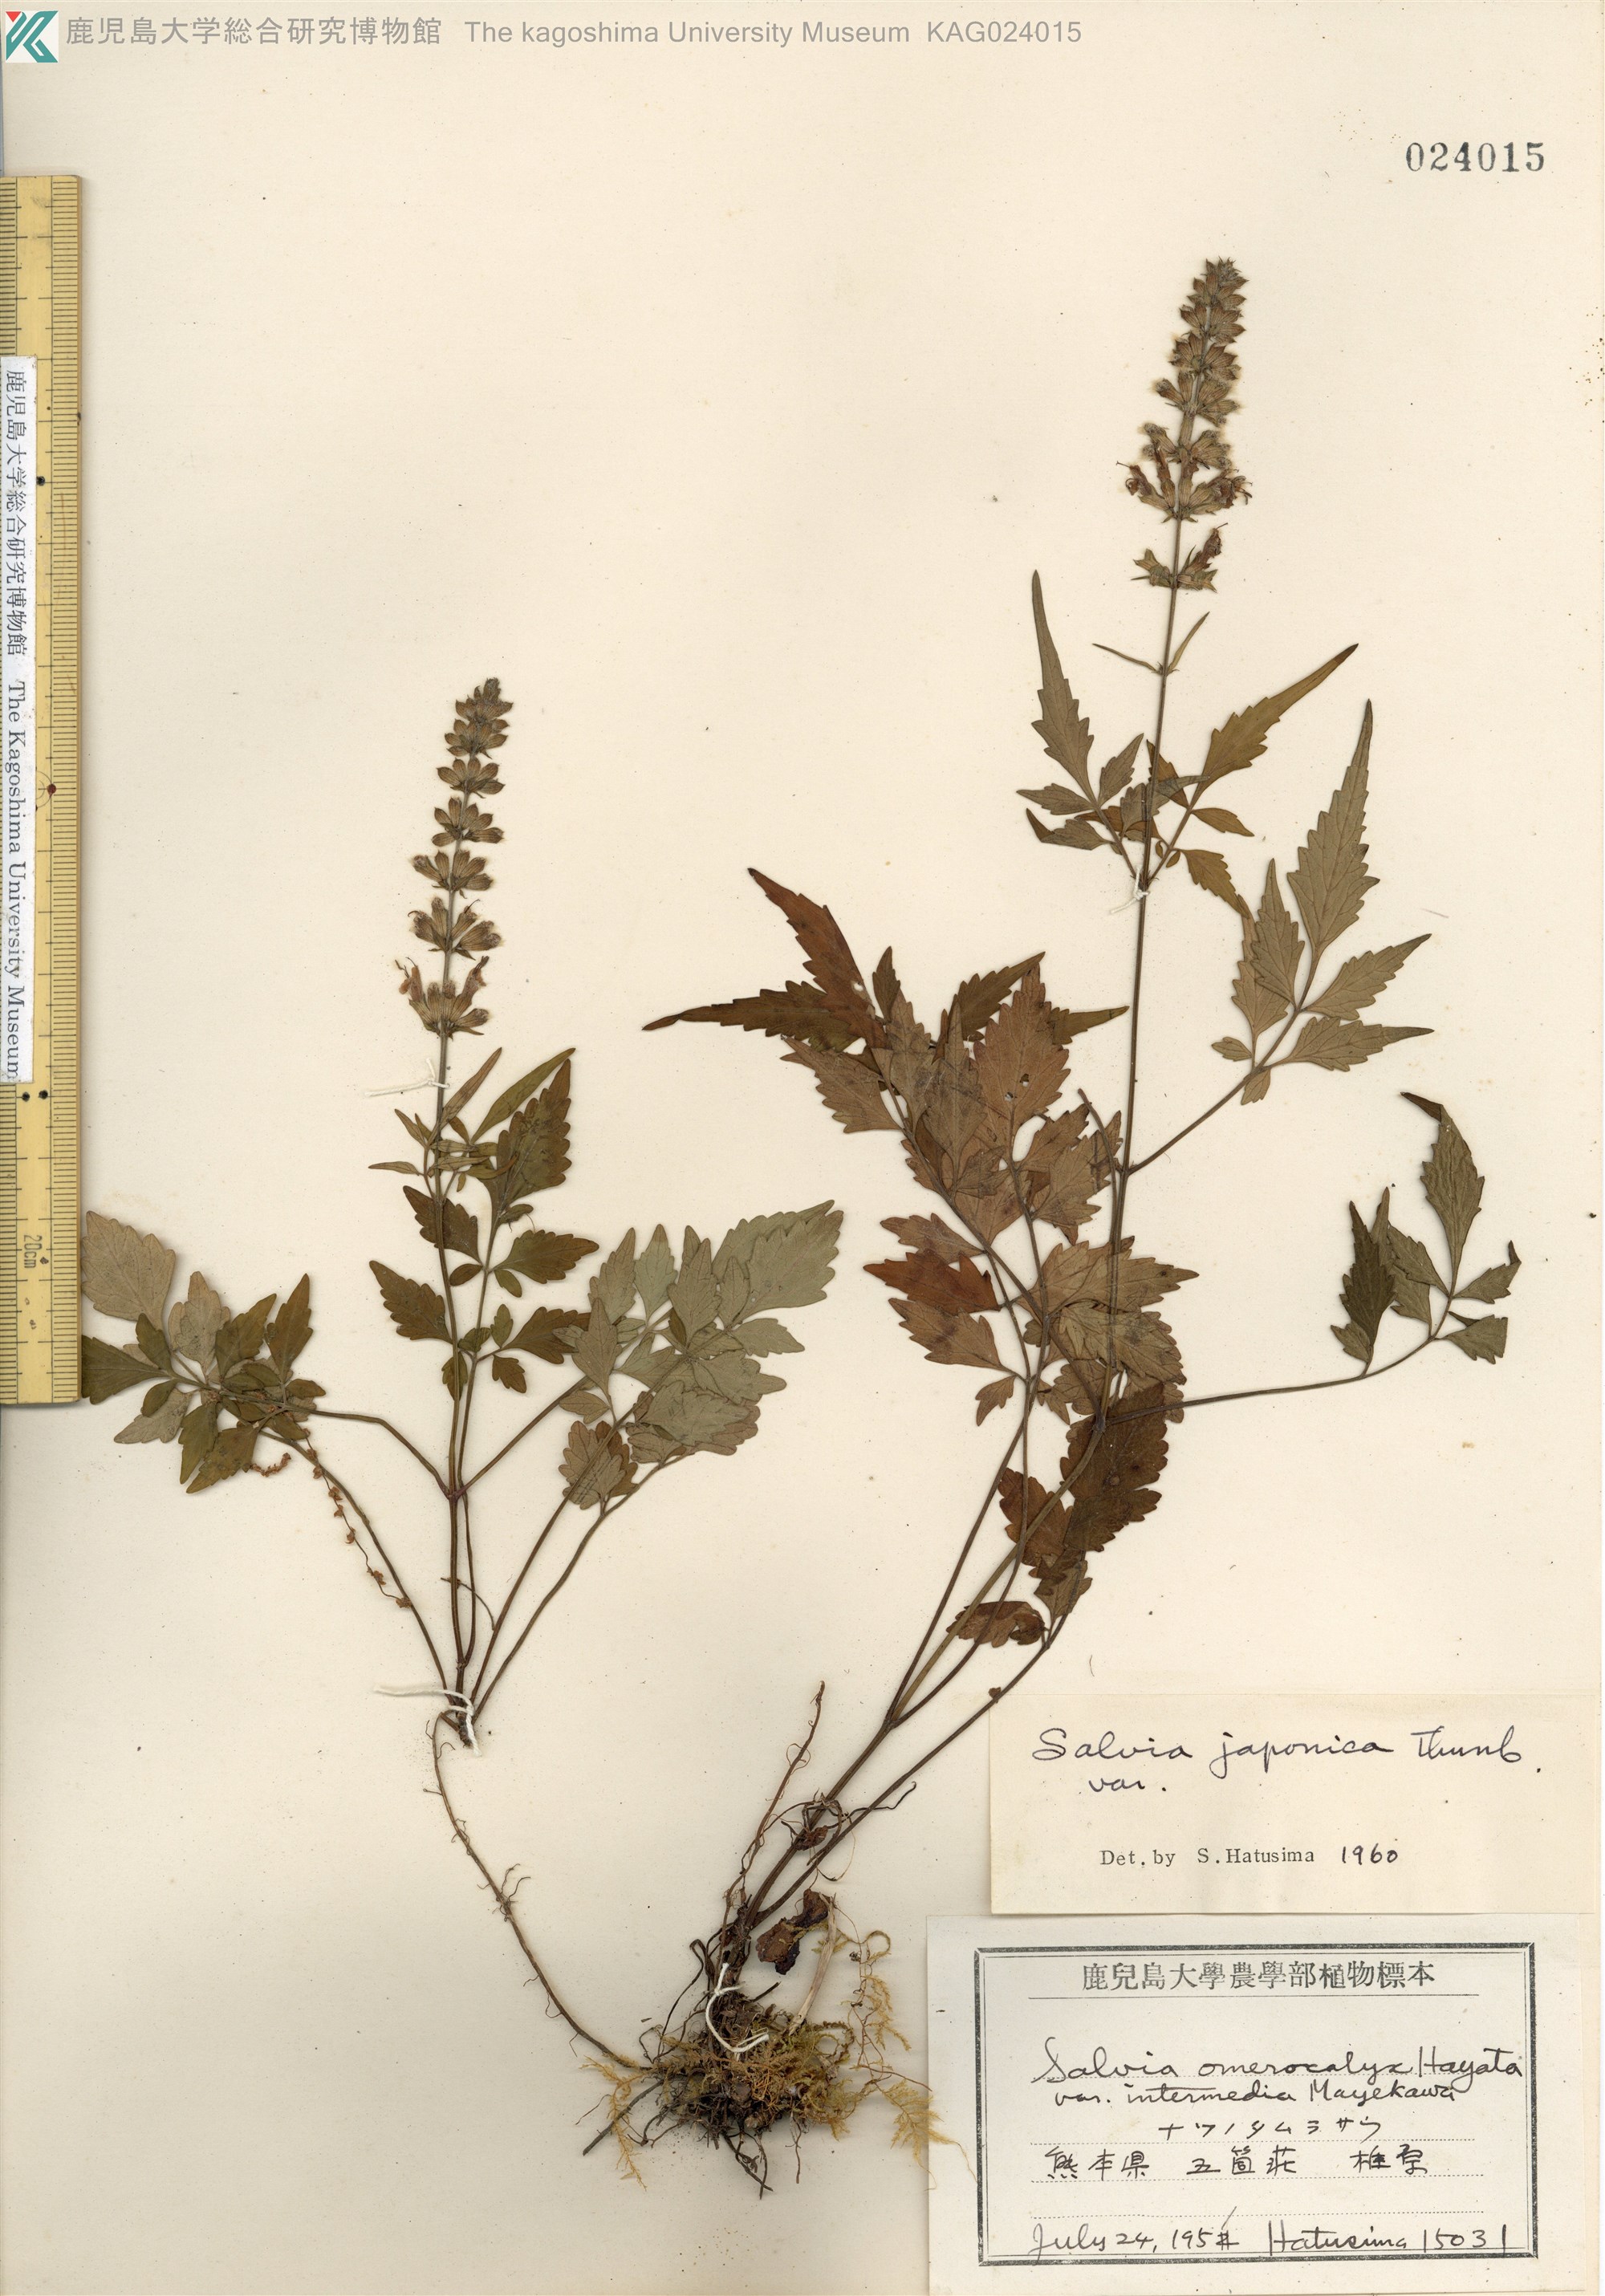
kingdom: Plantae
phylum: Tracheophyta
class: Magnoliopsida
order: Lamiales
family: Lamiaceae
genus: Salvia
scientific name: Salvia japonica
